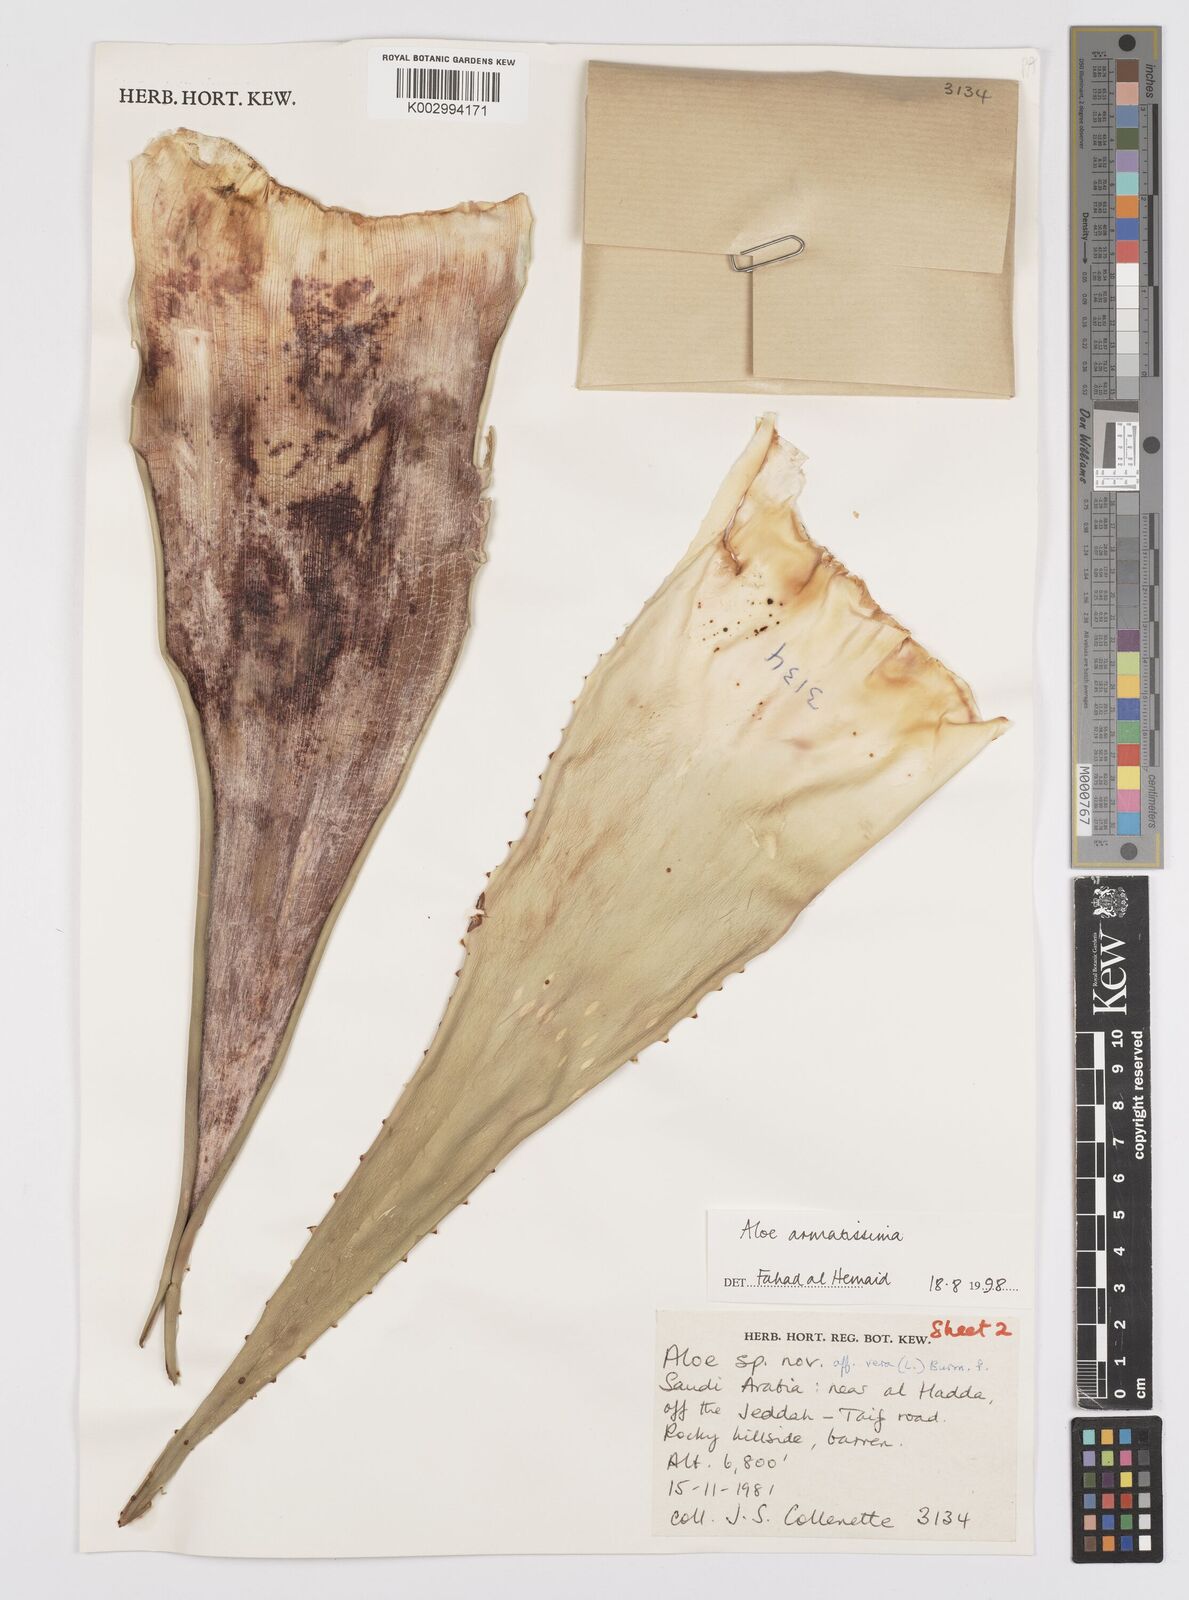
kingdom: Plantae
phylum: Tracheophyta
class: Liliopsida
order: Asparagales
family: Asphodelaceae
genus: Aloe
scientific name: Aloe armatissima
